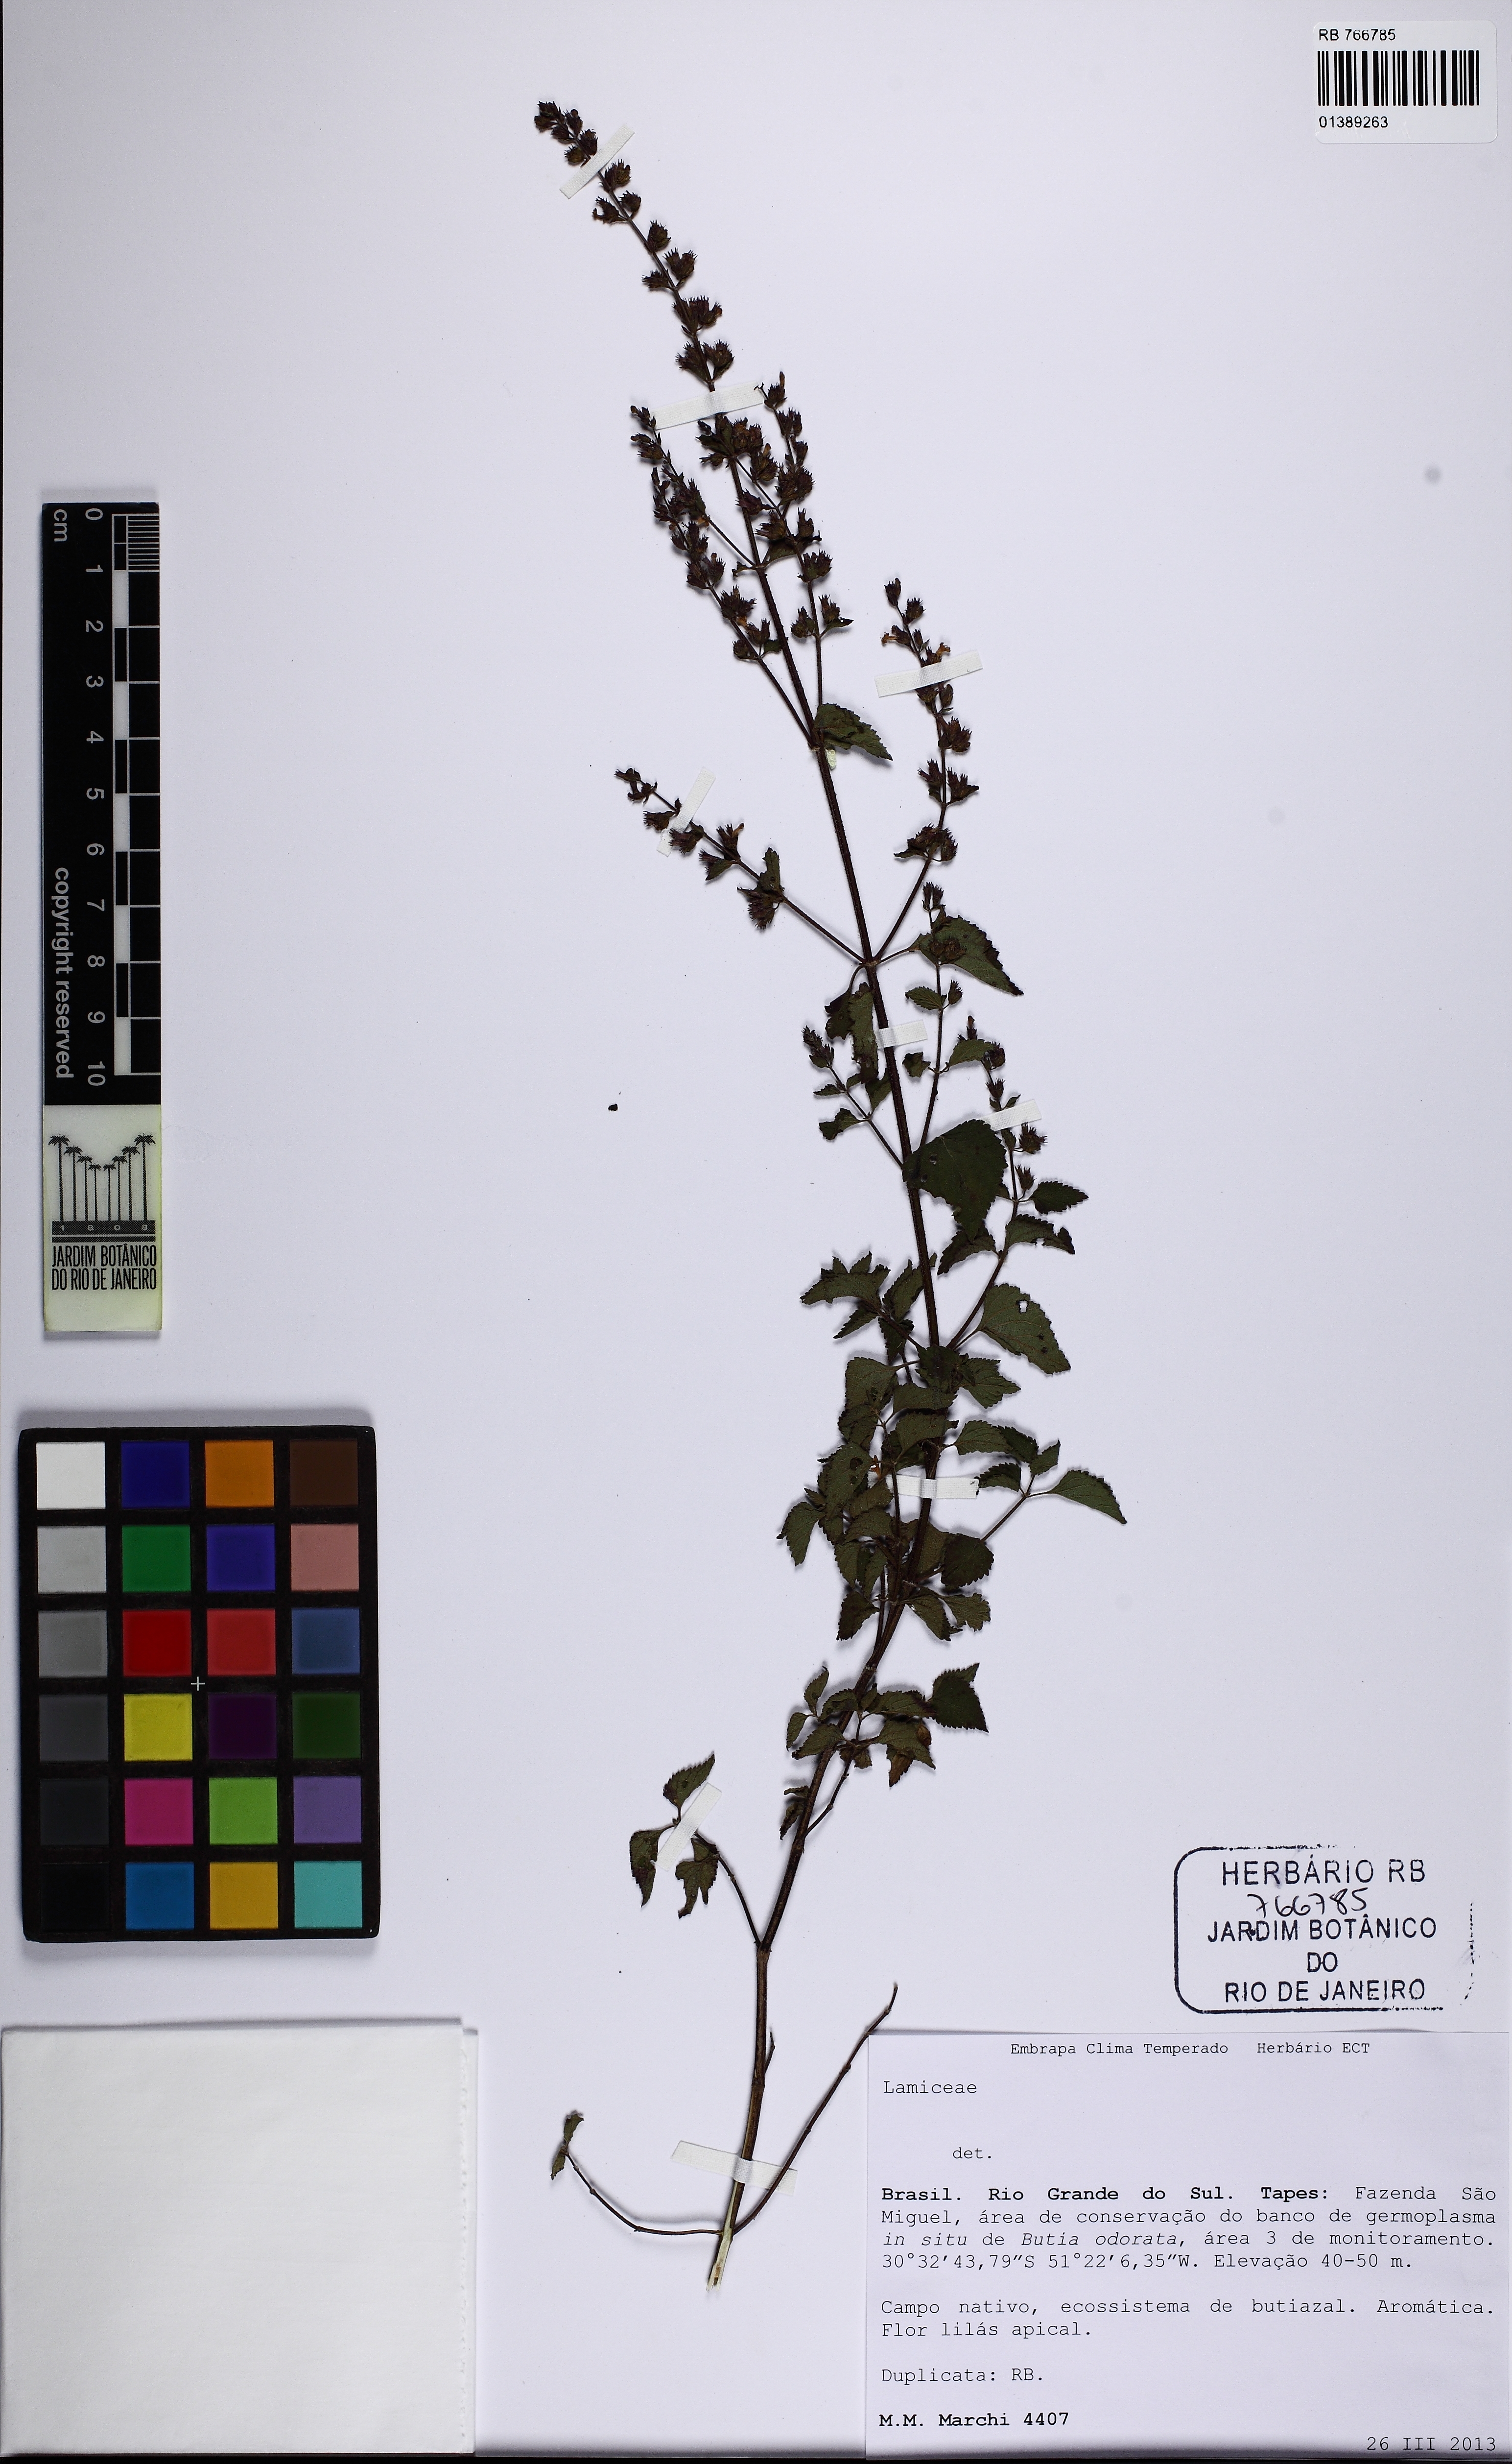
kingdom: Plantae
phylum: Tracheophyta
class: Magnoliopsida
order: Lamiales
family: Lamiaceae
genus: Cantinoa
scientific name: Cantinoa
